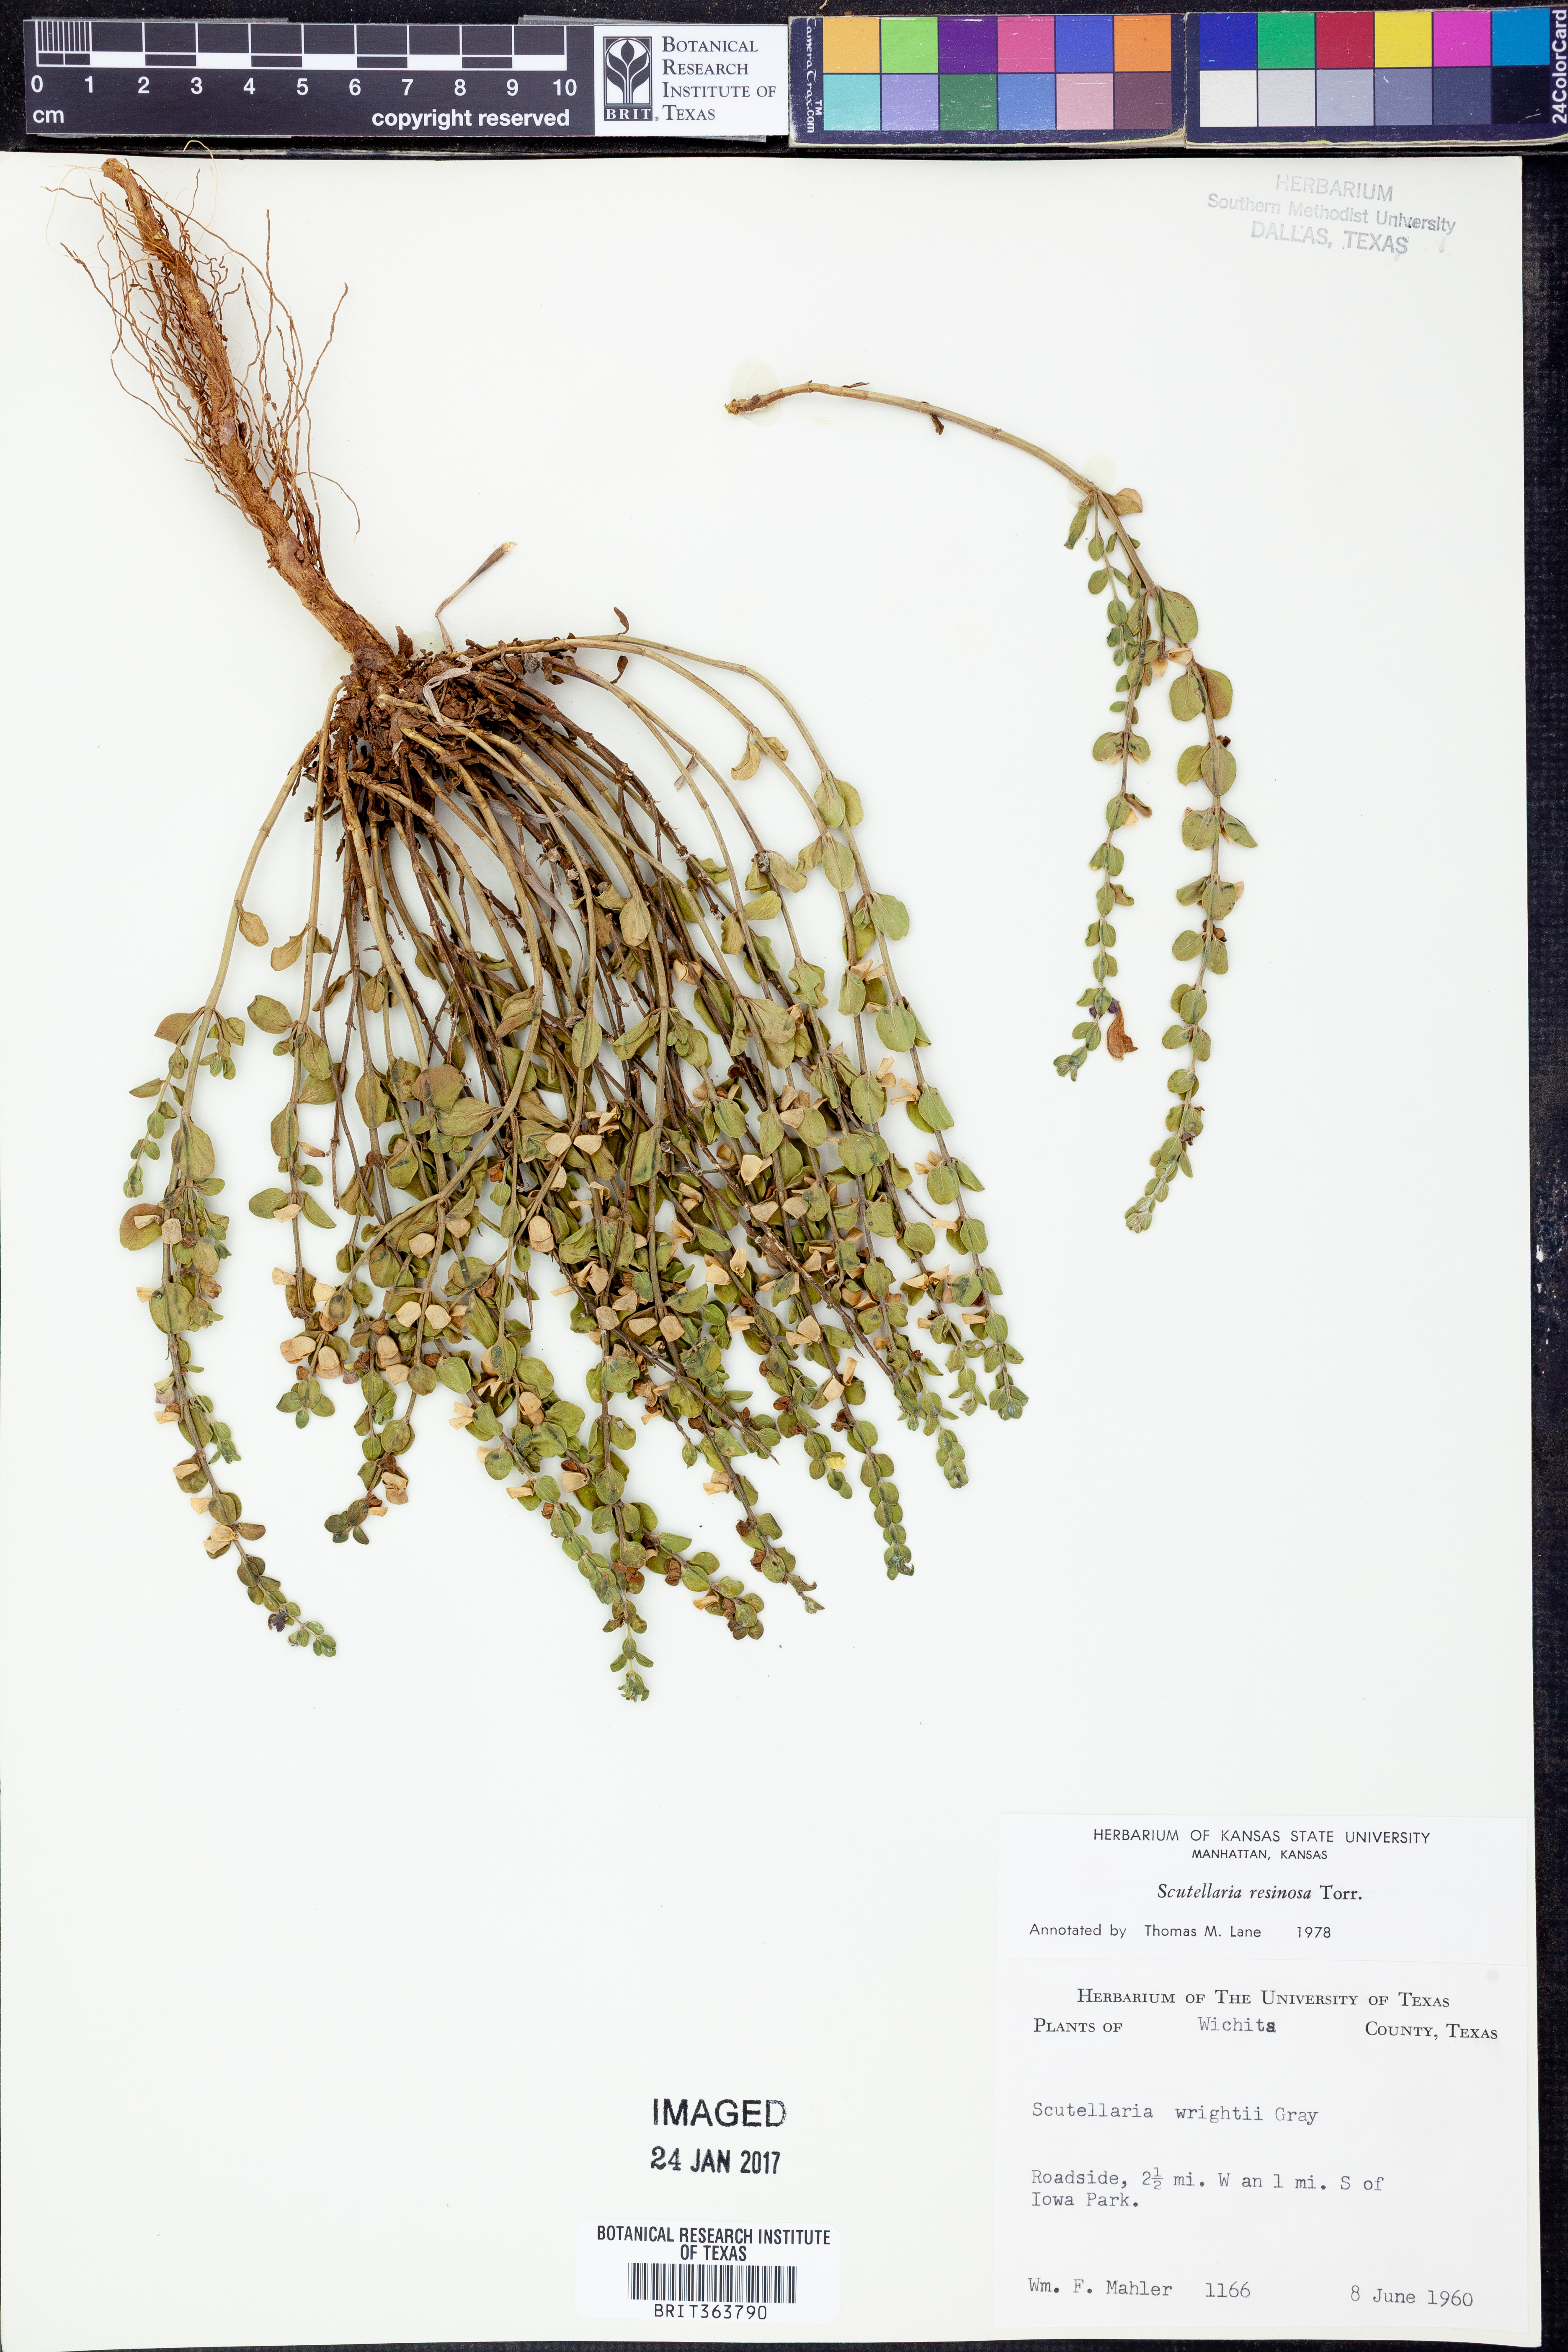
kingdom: Plantae
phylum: Tracheophyta
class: Magnoliopsida
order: Lamiales
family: Lamiaceae
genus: Scutellaria
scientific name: Scutellaria resinosa
